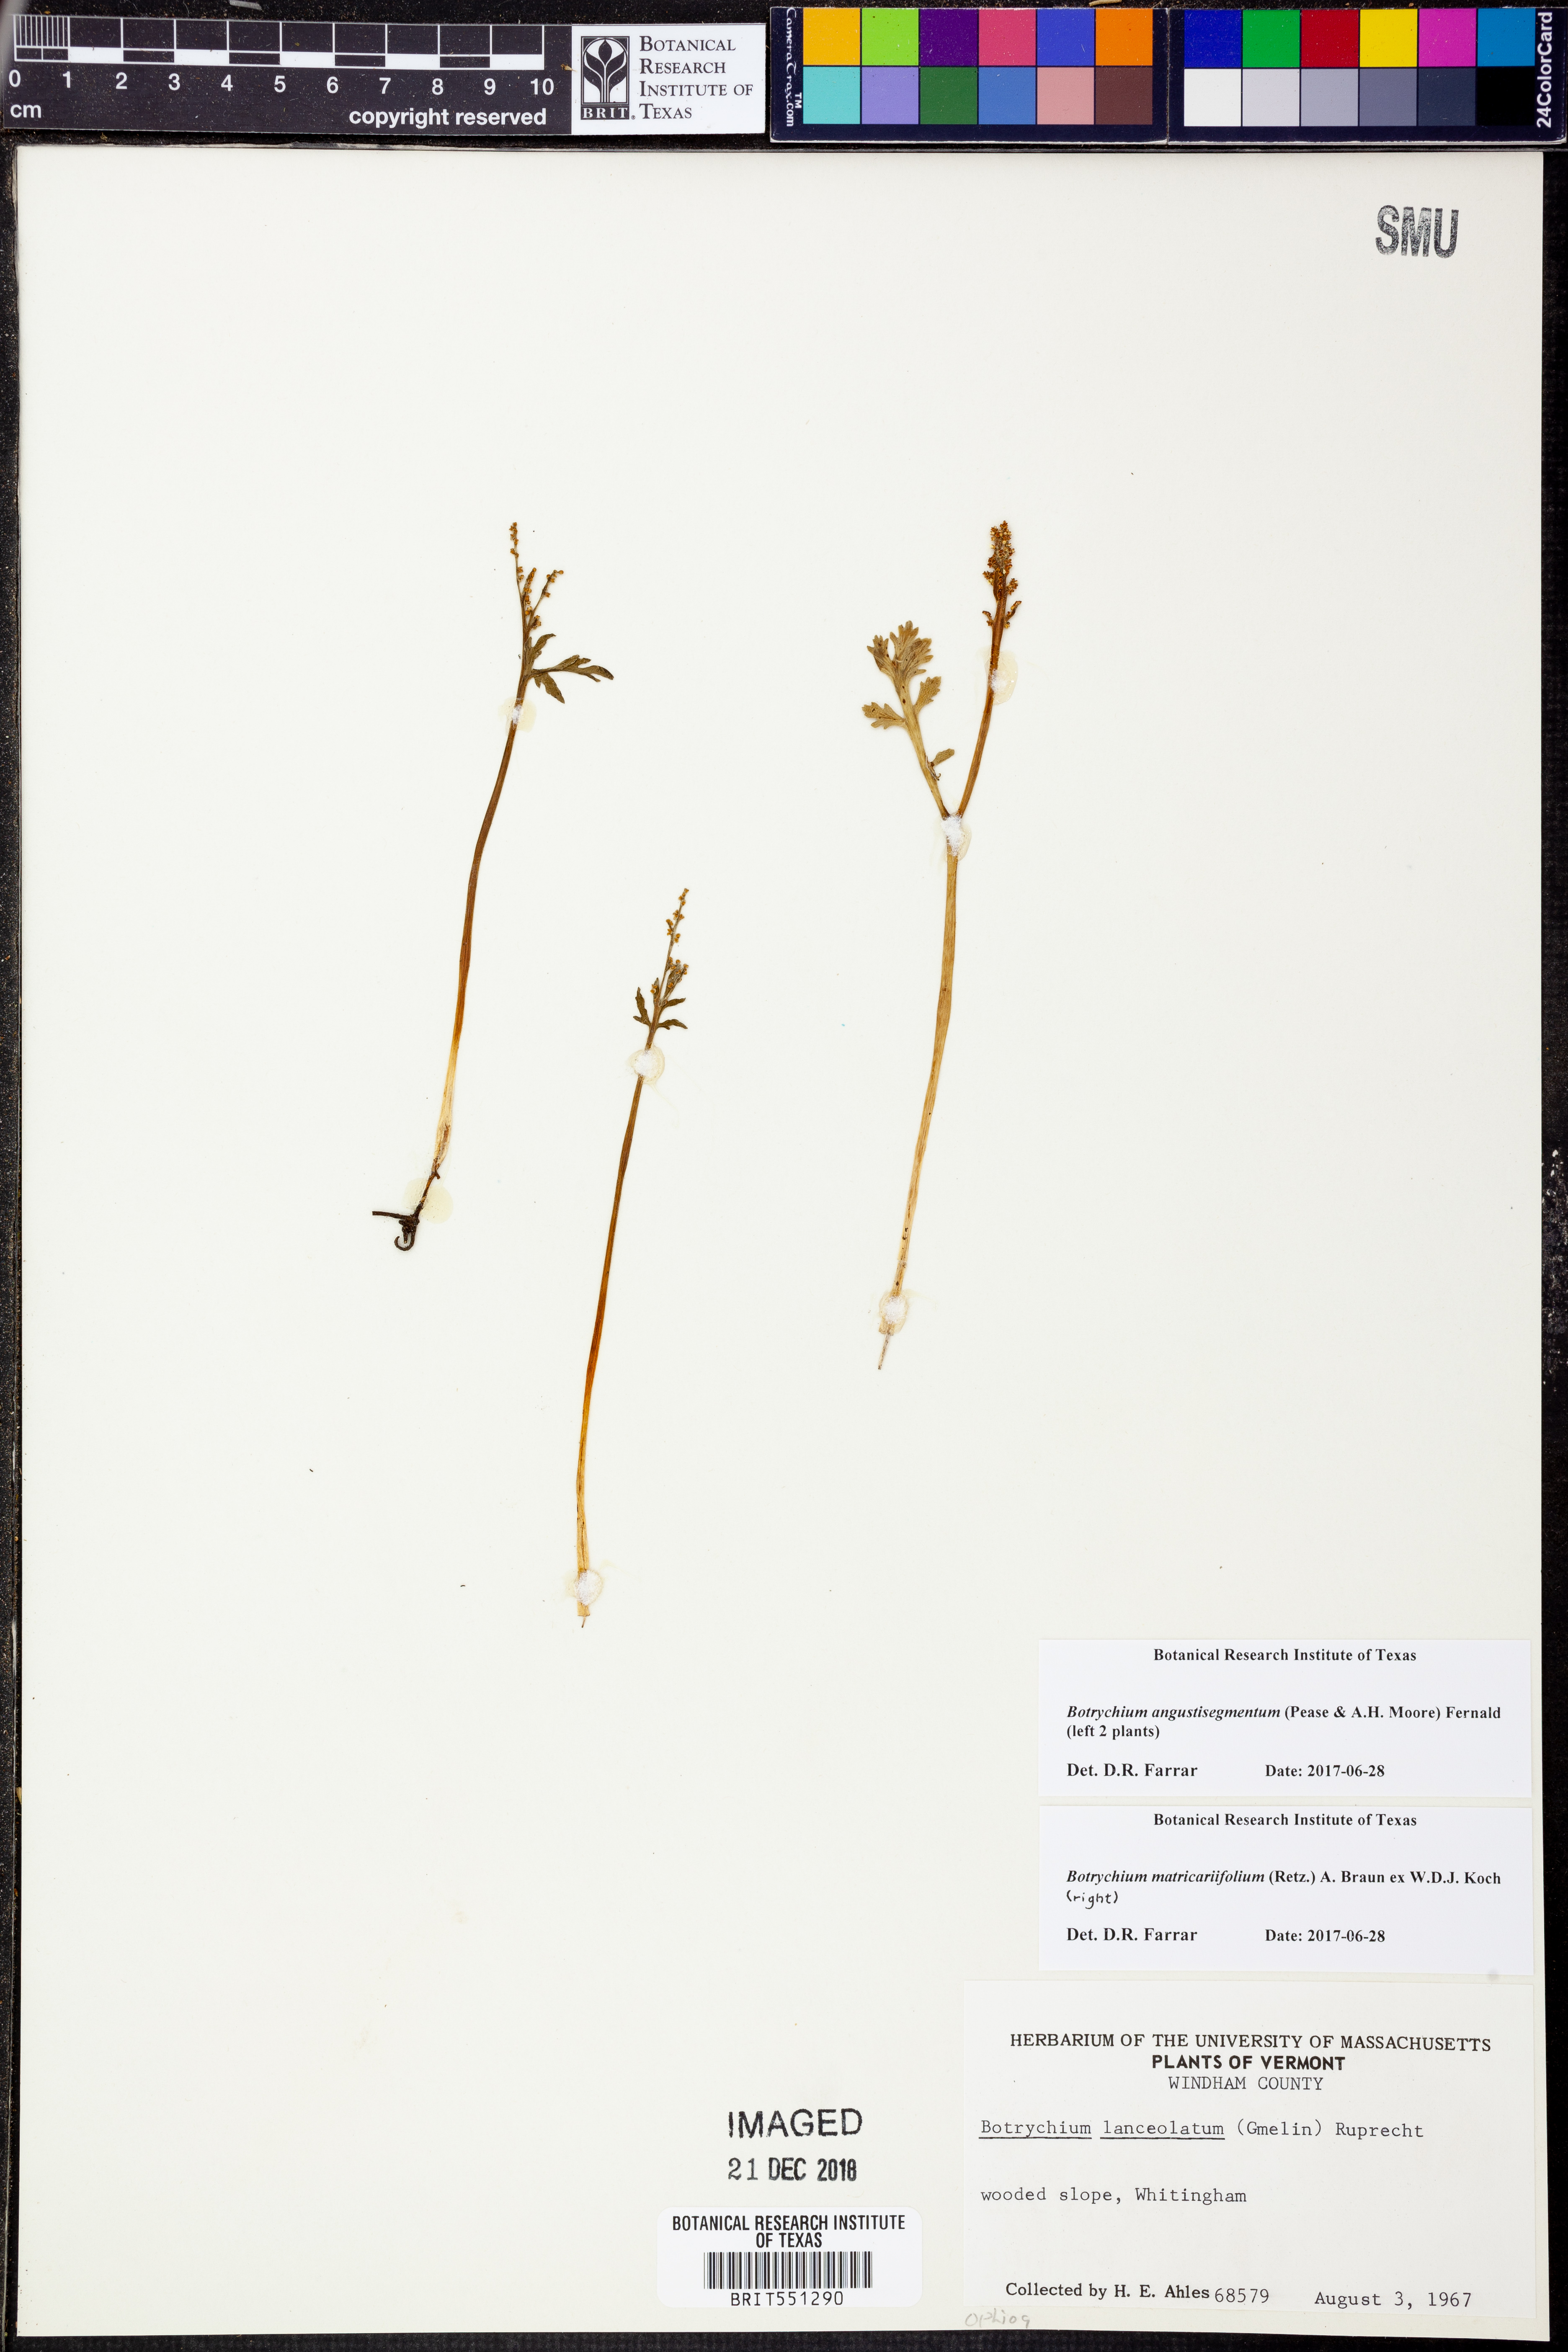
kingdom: Plantae
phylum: Tracheophyta
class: Polypodiopsida
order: Ophioglossales
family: Ophioglossaceae
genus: Botrychium
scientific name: Botrychium angustisegmentum
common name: Narrow triangle moonwort
